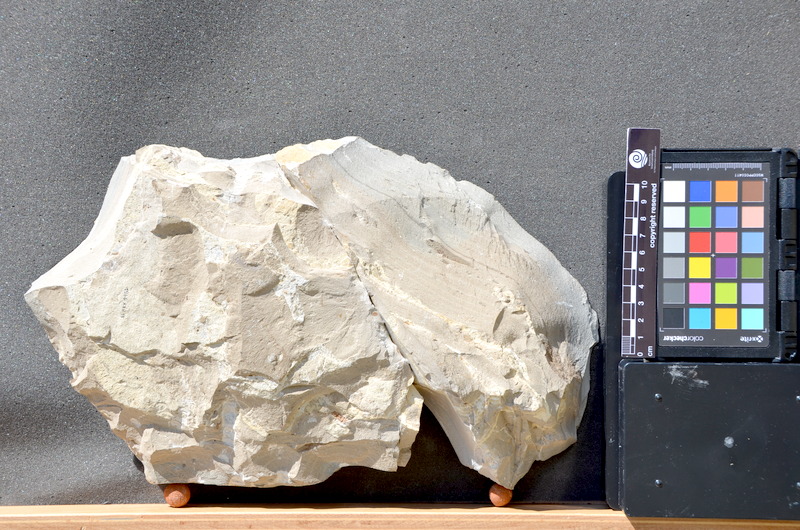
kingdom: Animalia
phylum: Chordata
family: Pycnodontes
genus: Palaeobalistum
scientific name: Palaeobalistum goedelii
